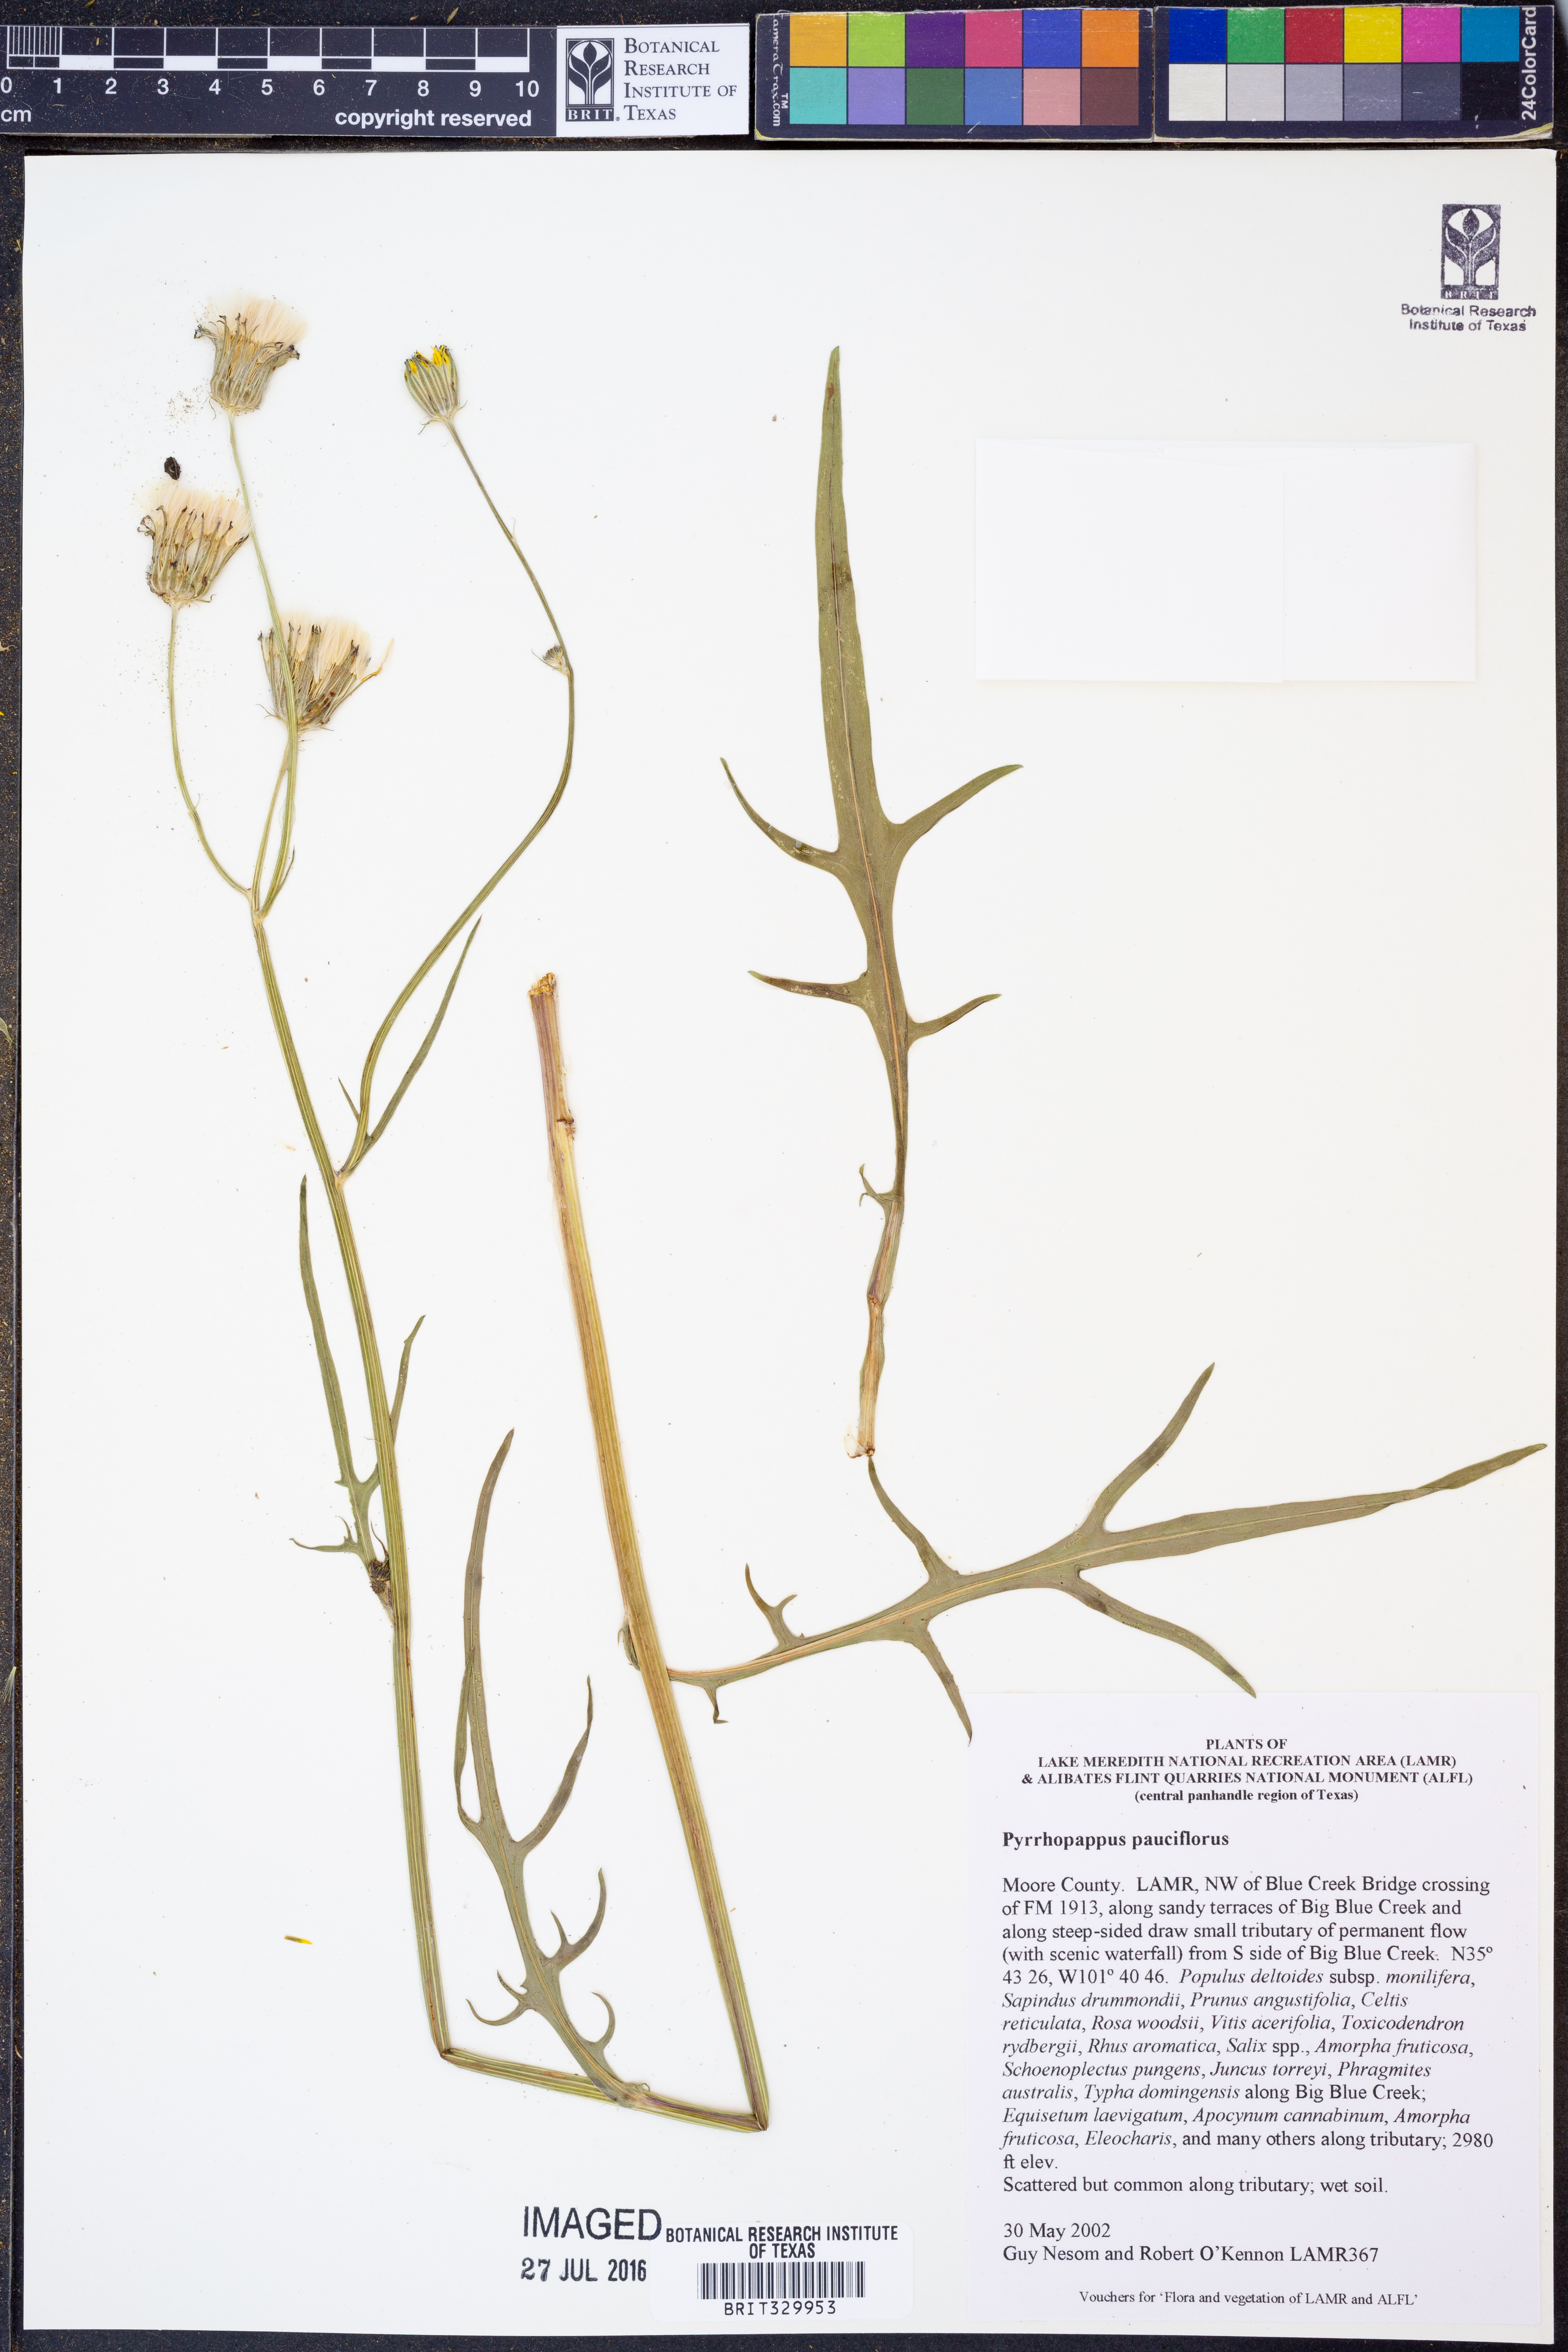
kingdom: Plantae
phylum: Tracheophyta
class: Magnoliopsida
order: Asterales
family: Asteraceae
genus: Pyrrhopappus
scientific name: Pyrrhopappus pauciflorus
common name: Texas false dandelion
